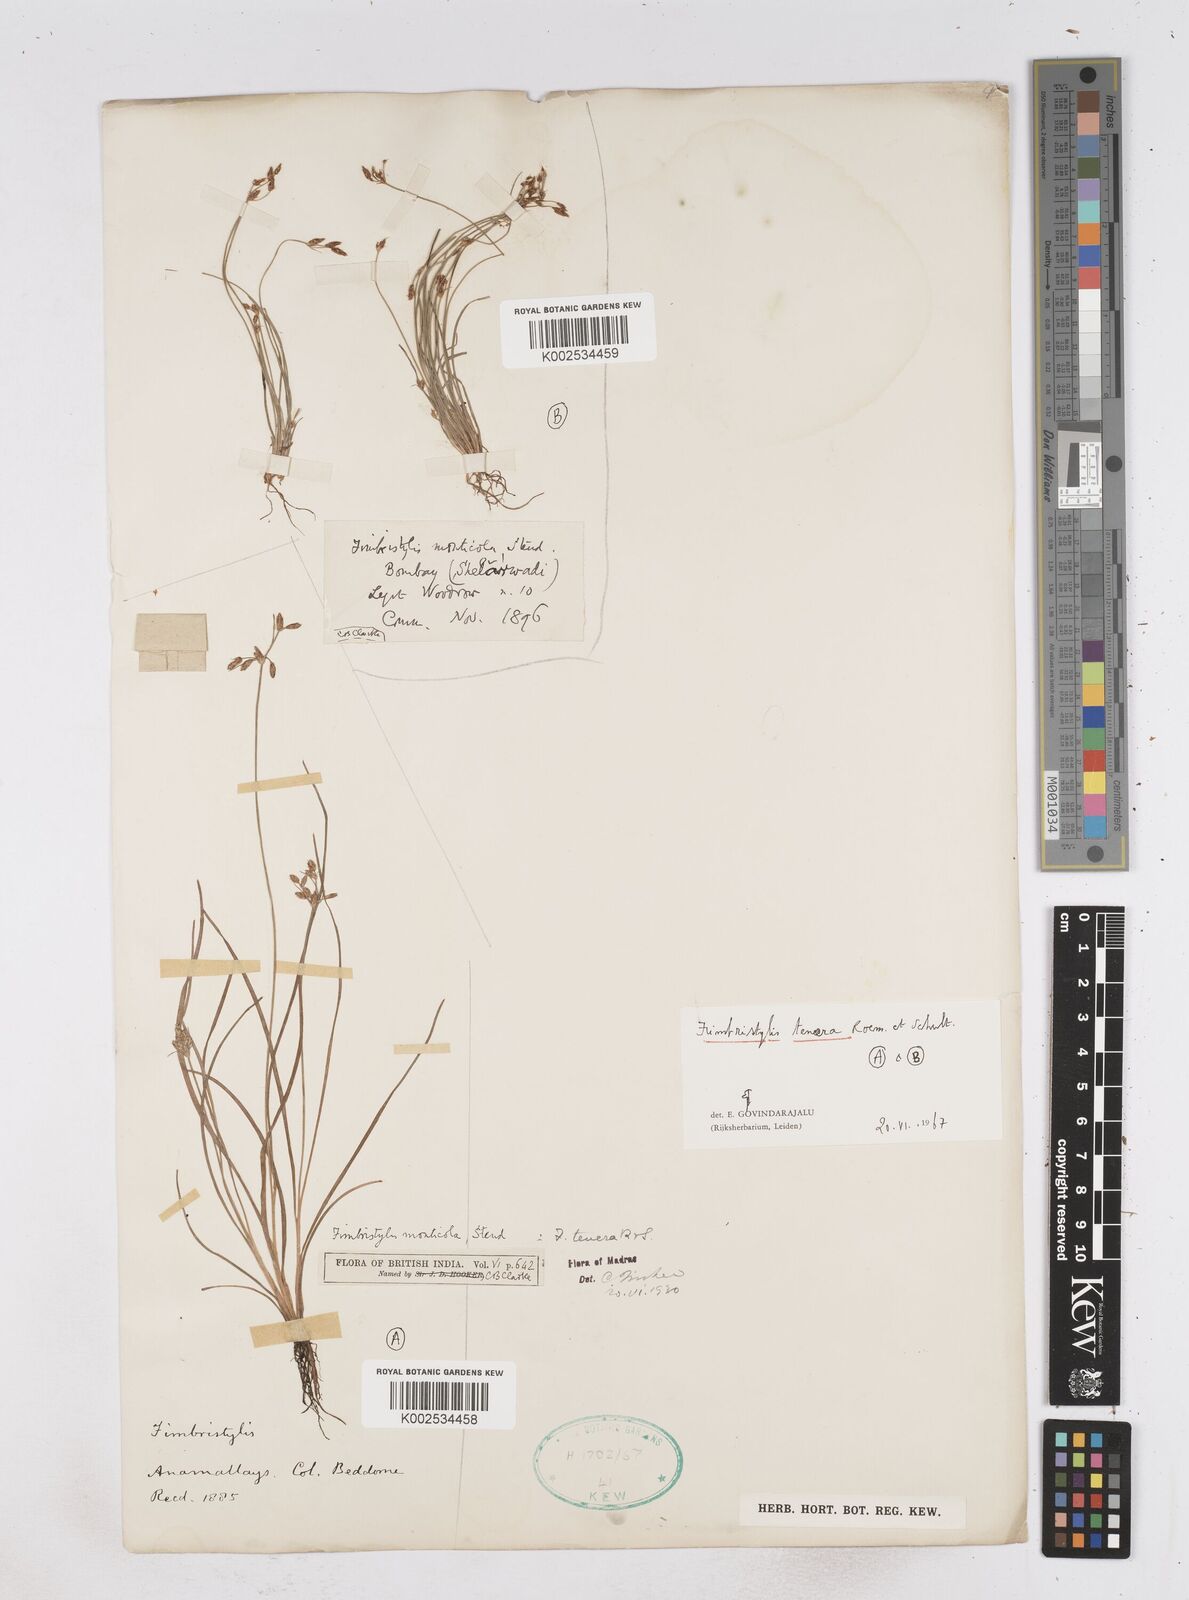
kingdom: Plantae
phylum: Tracheophyta
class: Liliopsida
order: Poales
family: Cyperaceae
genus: Fimbristylis
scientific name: Fimbristylis tenera
